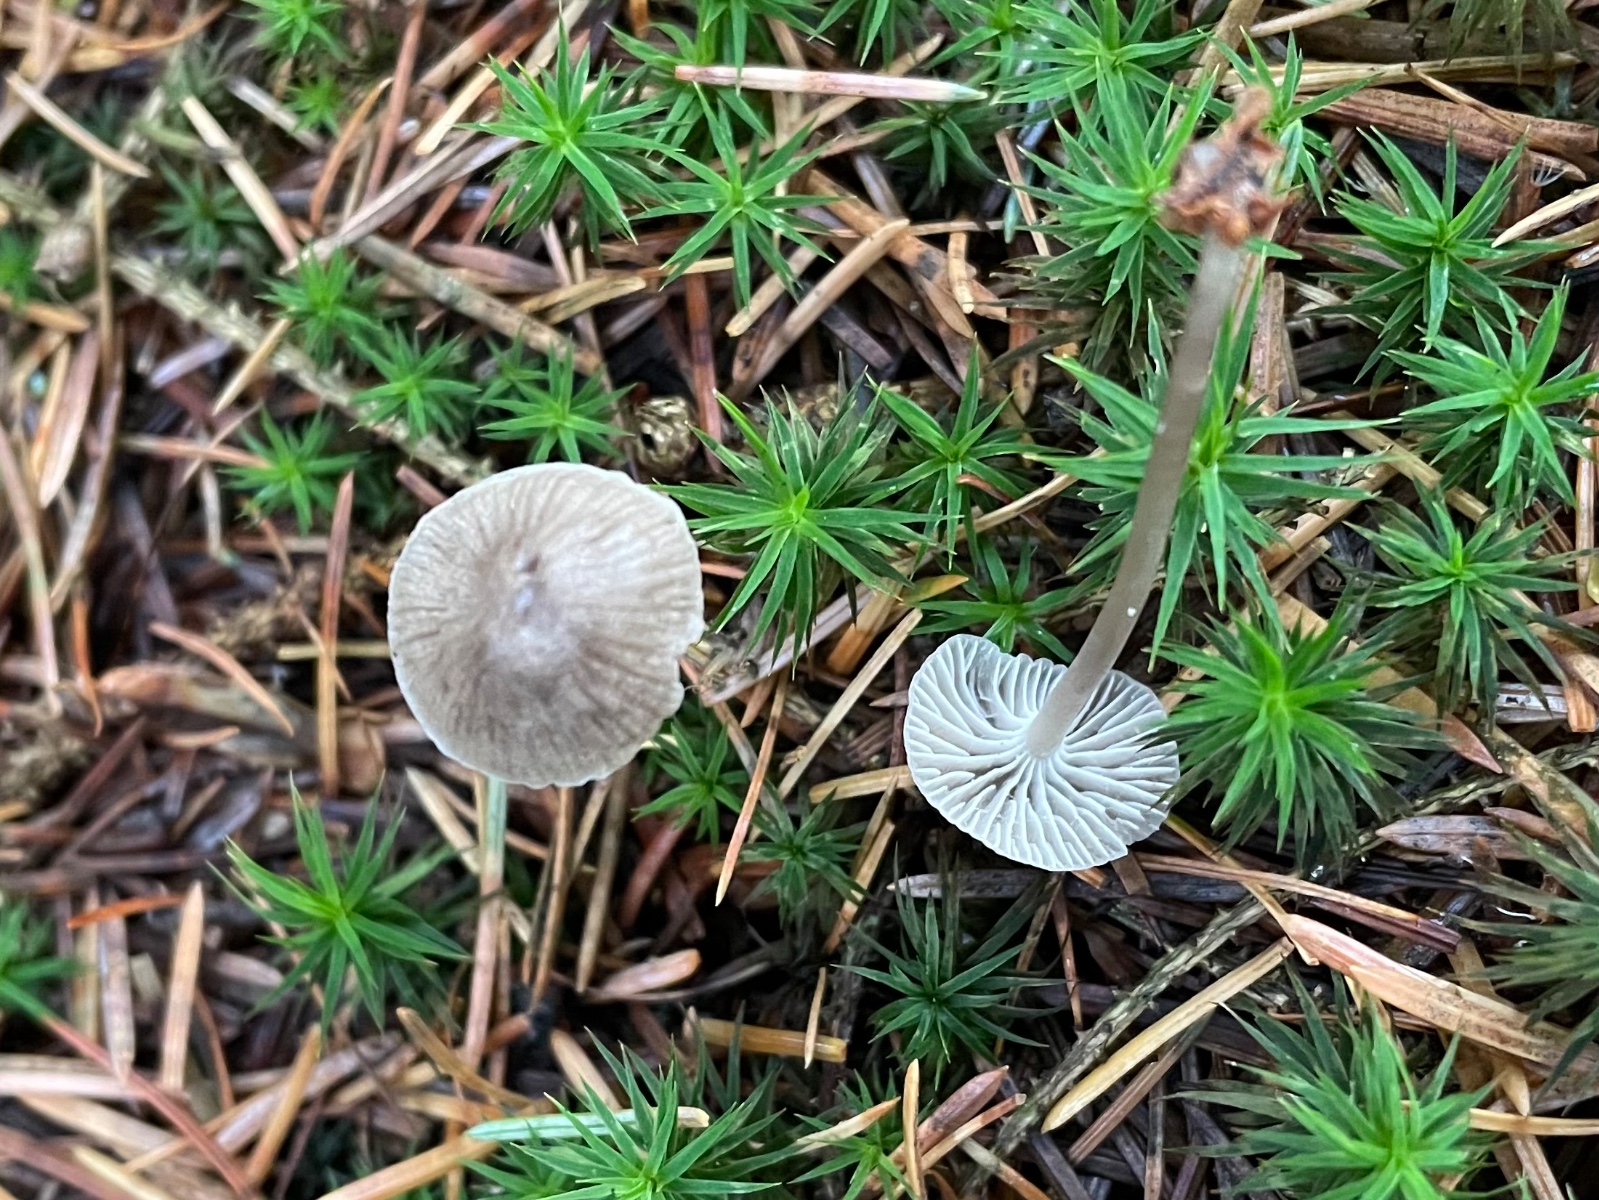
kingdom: Fungi
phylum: Basidiomycota
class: Agaricomycetes
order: Agaricales
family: Mycenaceae
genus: Mycena
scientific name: Mycena cinerella
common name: mel-huesvamp
